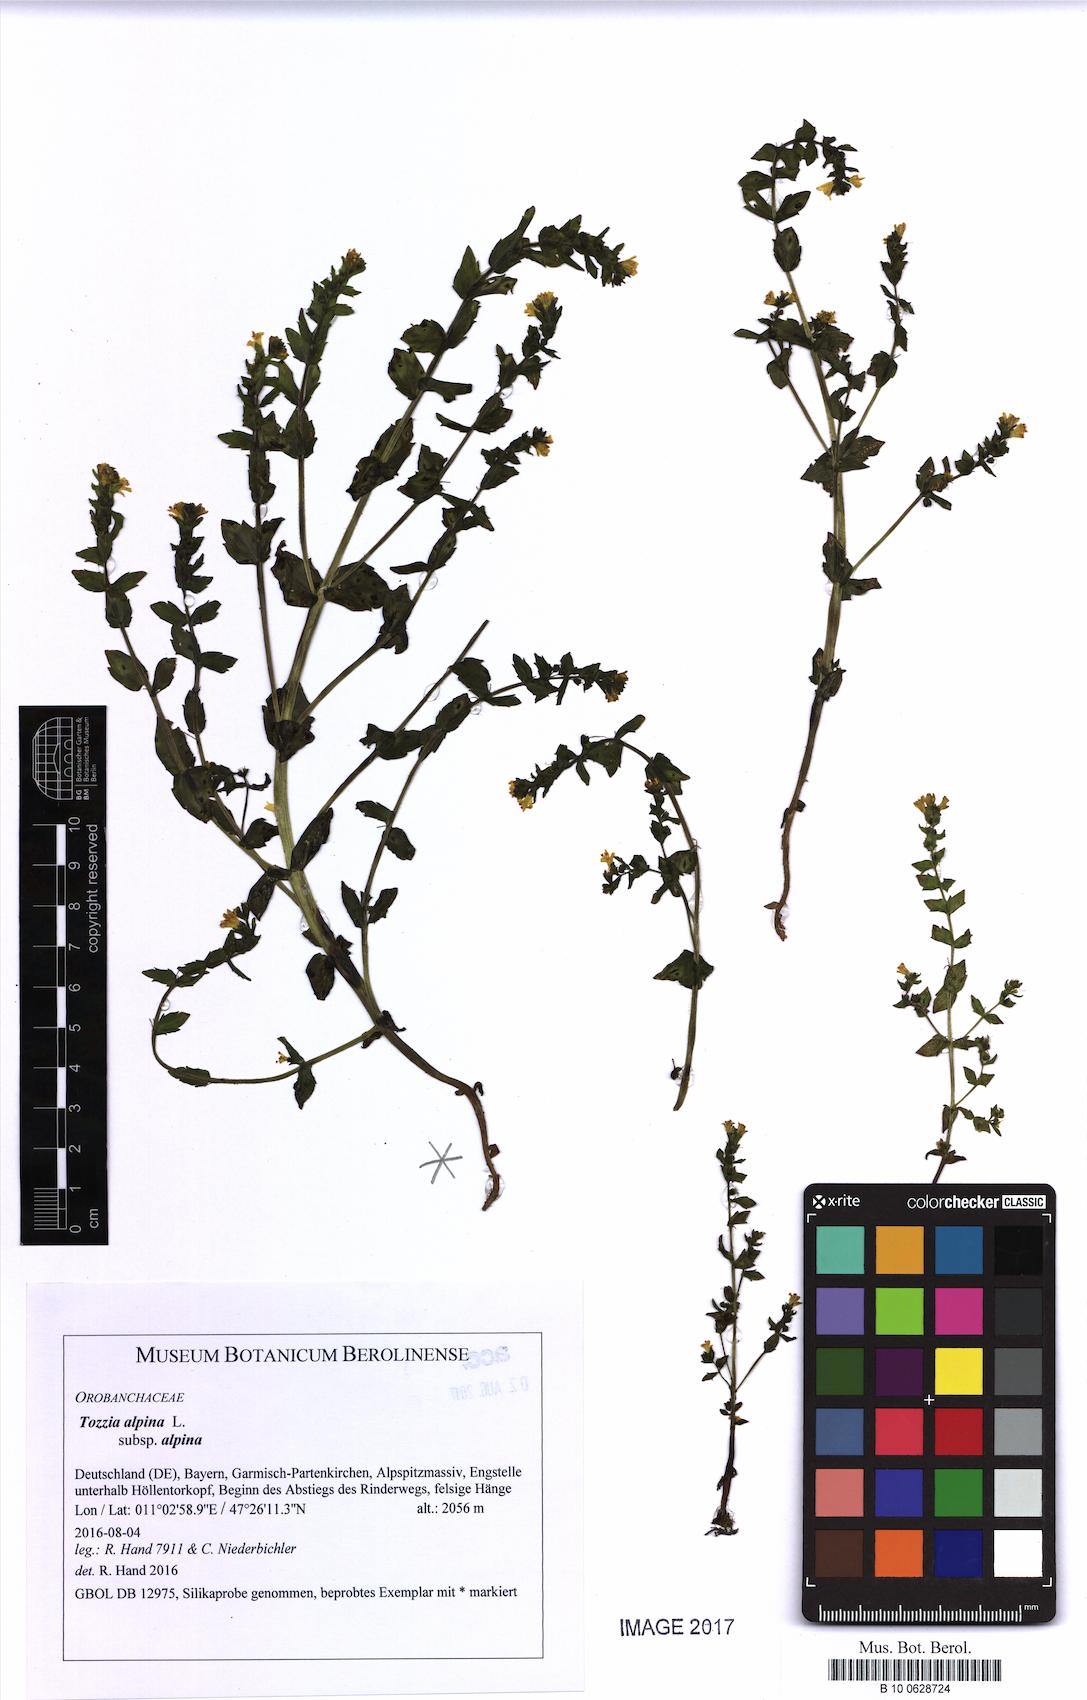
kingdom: Plantae
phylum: Tracheophyta
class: Magnoliopsida
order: Lamiales
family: Orobanchaceae
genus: Tozzia
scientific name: Tozzia alpina
